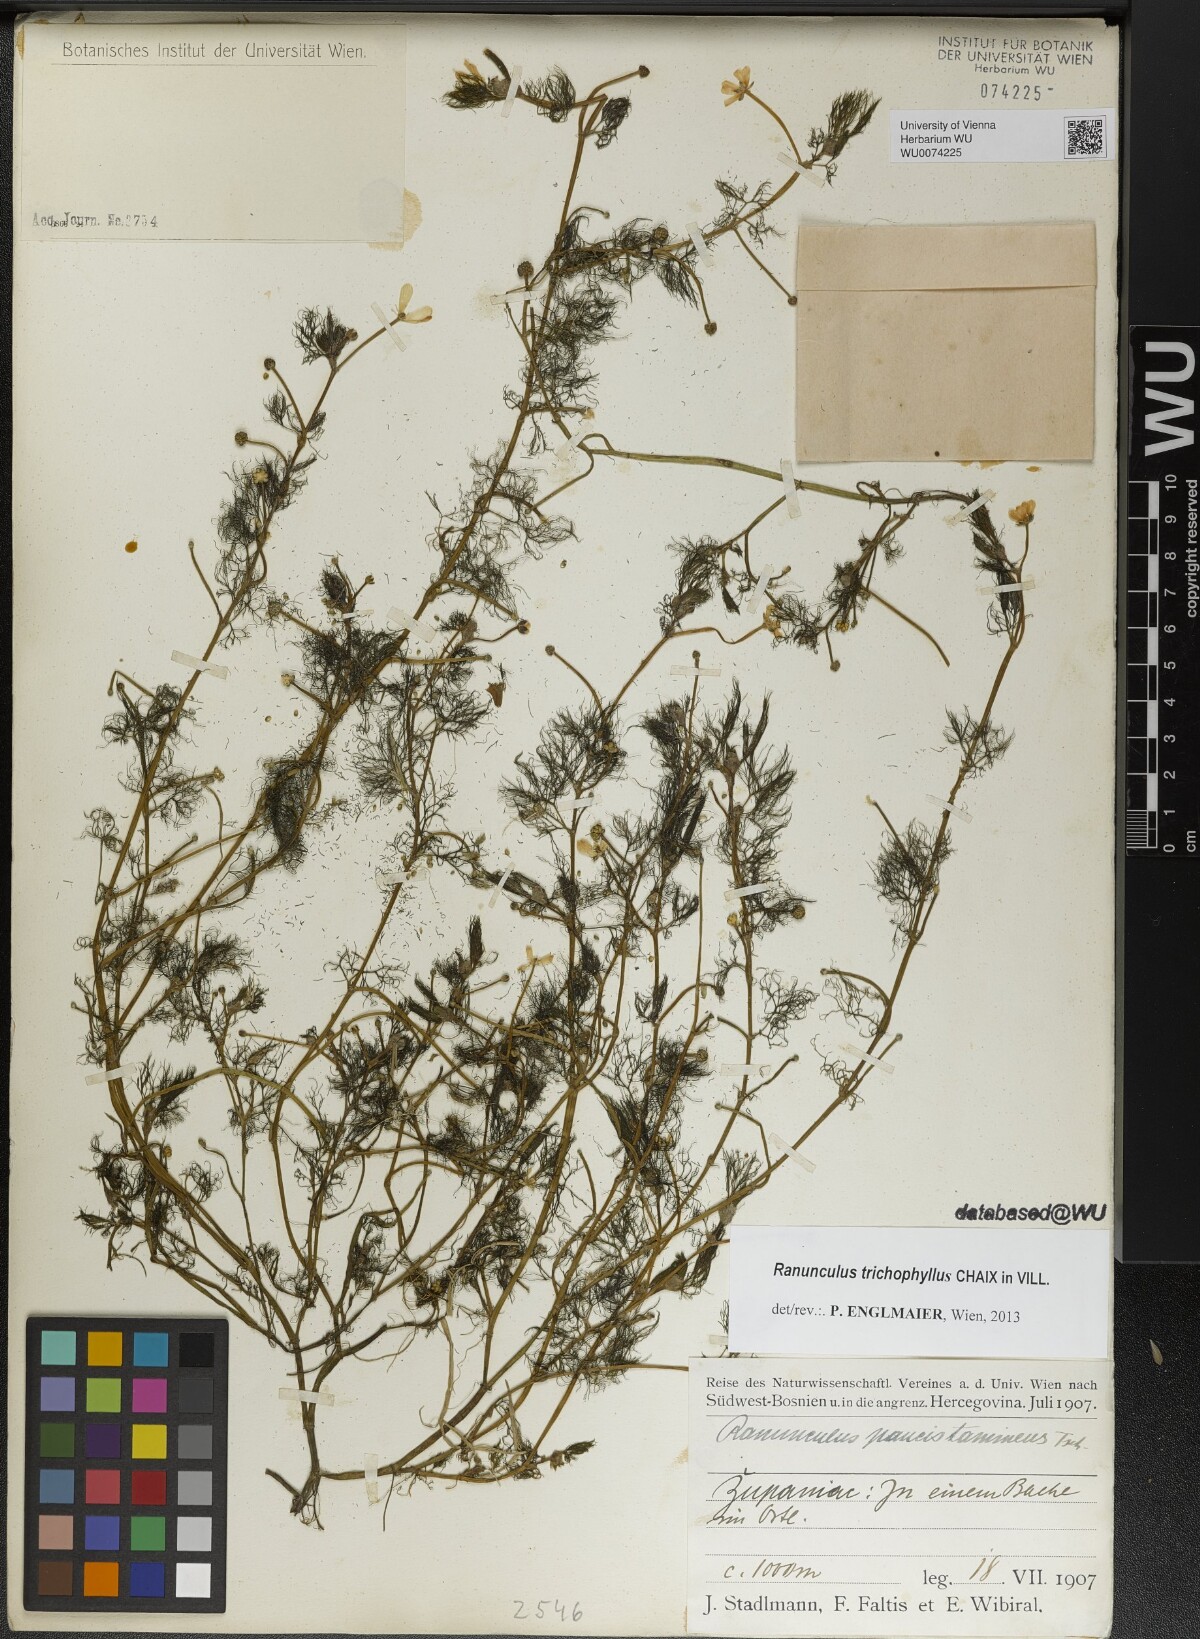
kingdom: Plantae
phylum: Tracheophyta
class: Magnoliopsida
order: Ranunculales
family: Ranunculaceae
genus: Ranunculus
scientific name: Ranunculus trichophyllus
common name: Thread-leaved water-crowfoot
